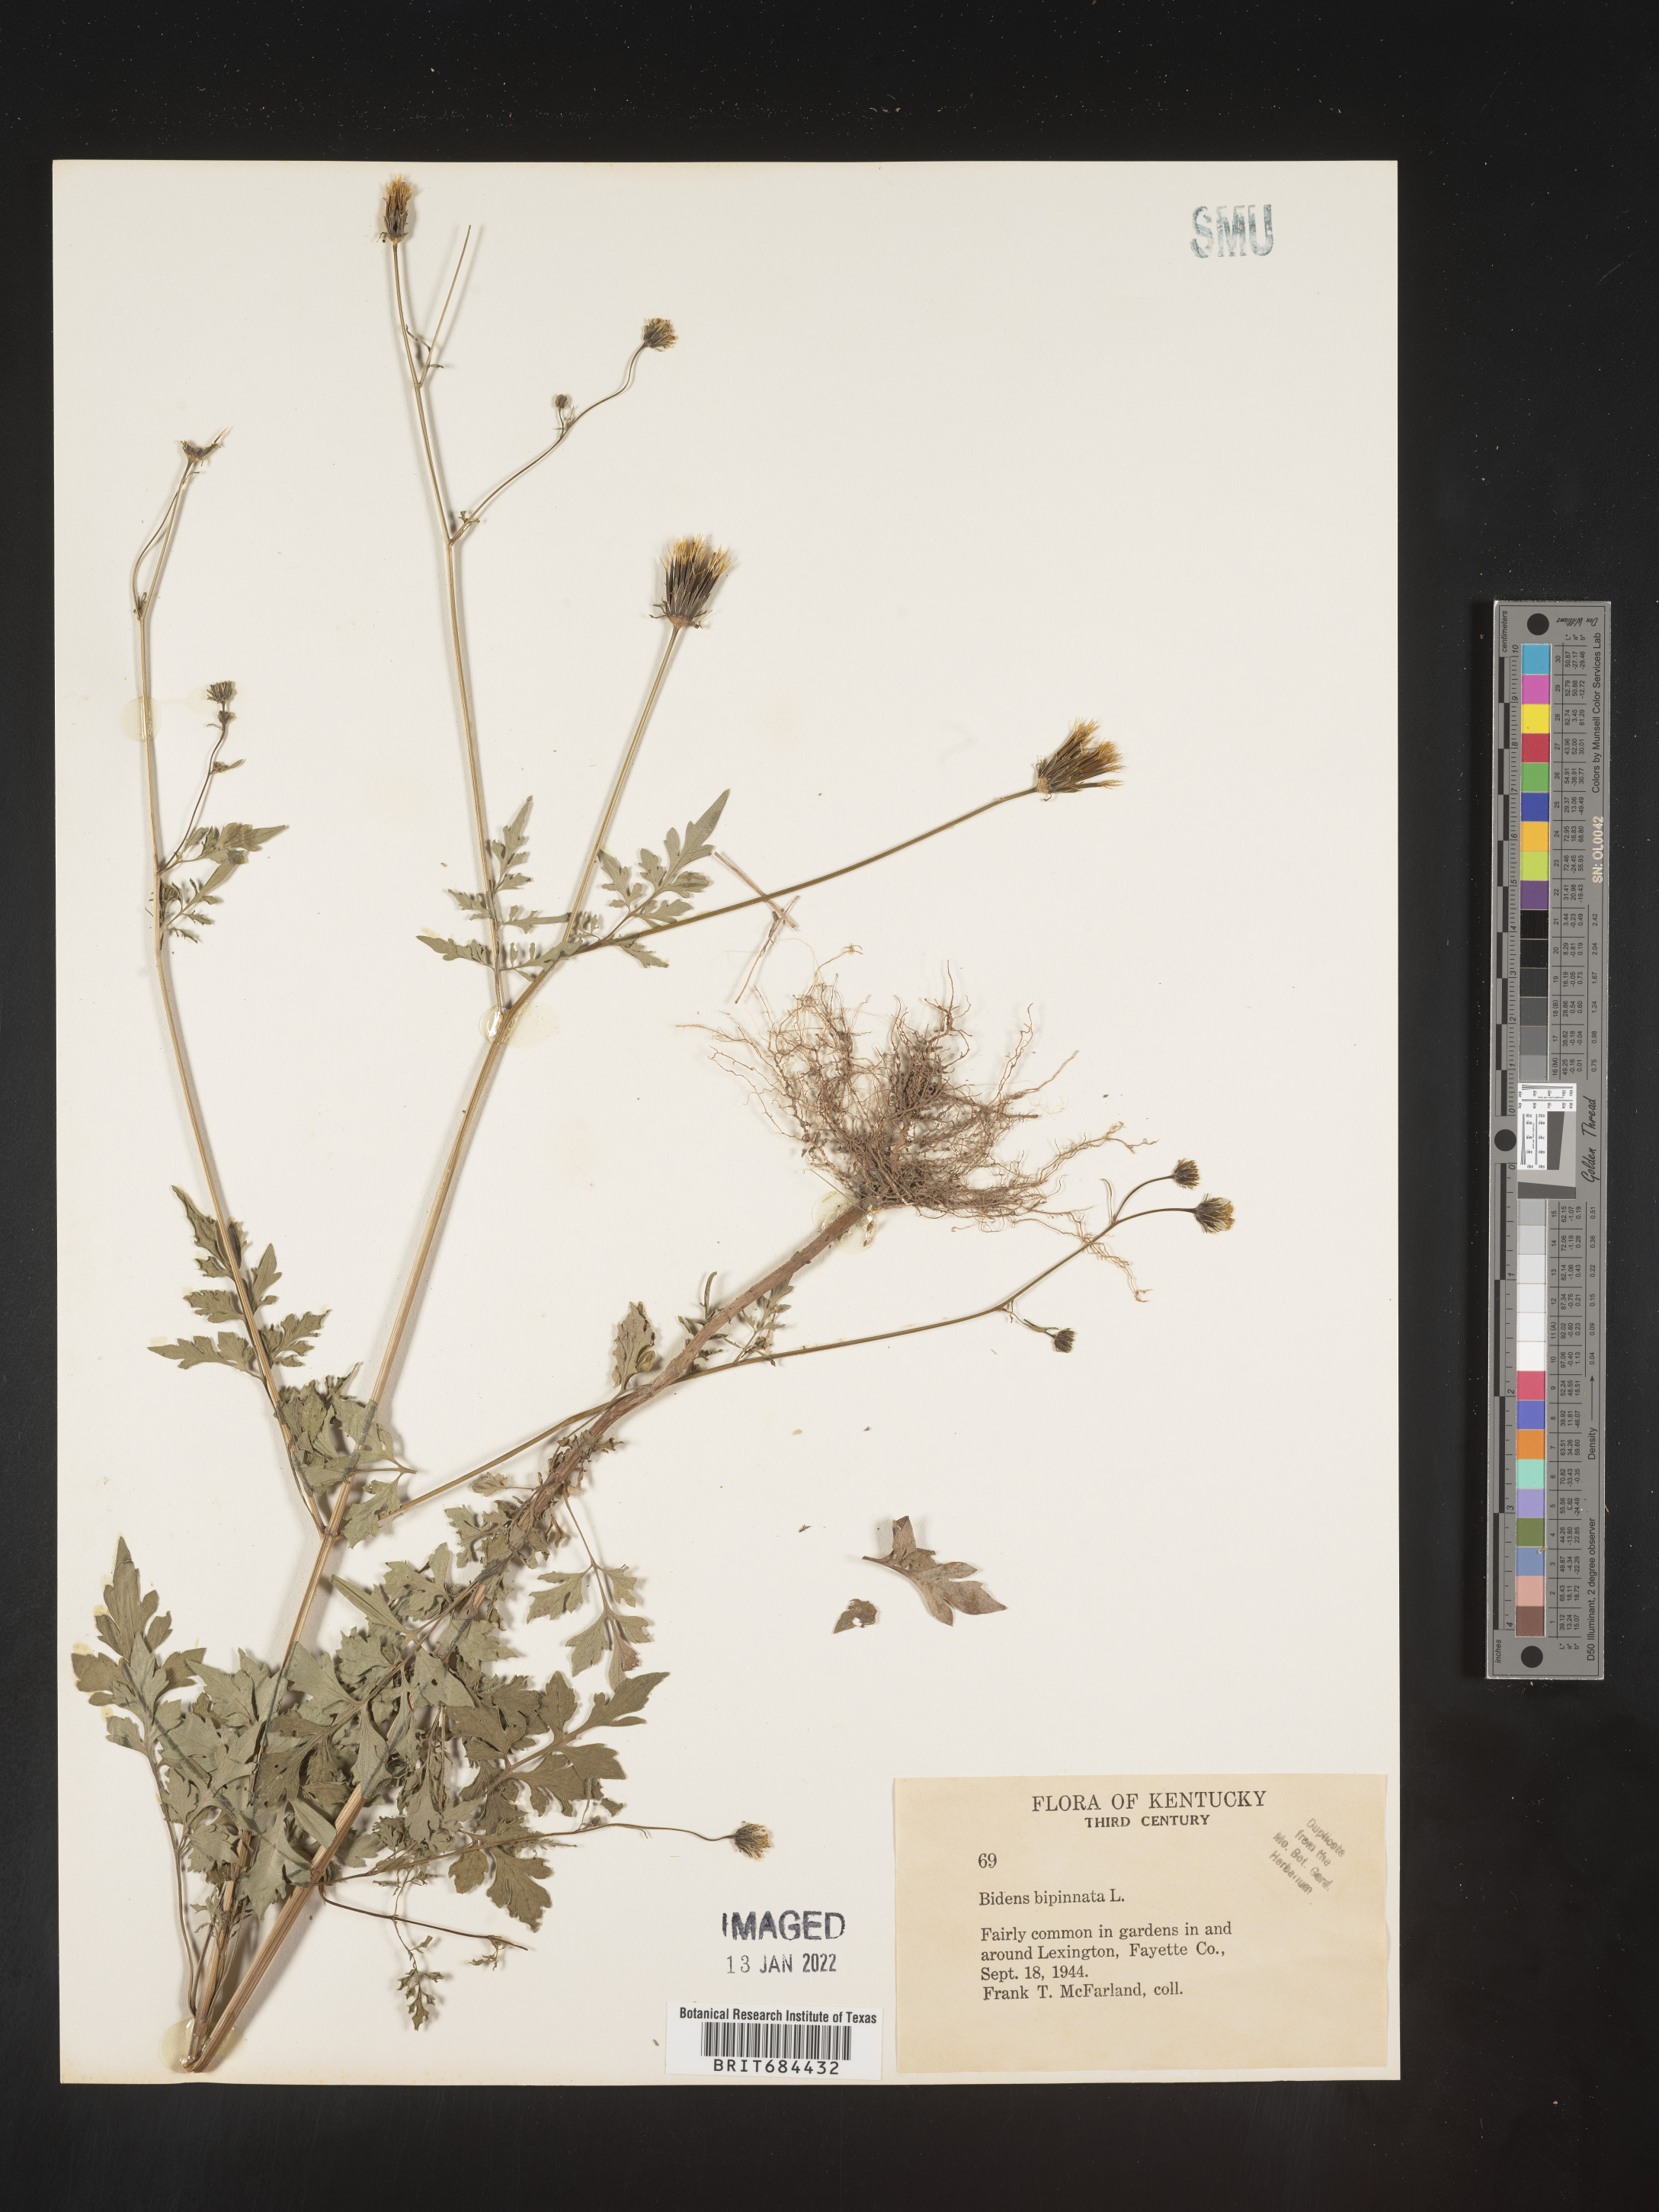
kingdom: Plantae
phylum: Tracheophyta
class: Magnoliopsida
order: Asterales
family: Asteraceae
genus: Bidens
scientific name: Bidens bipinnata
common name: Spanish-needles
